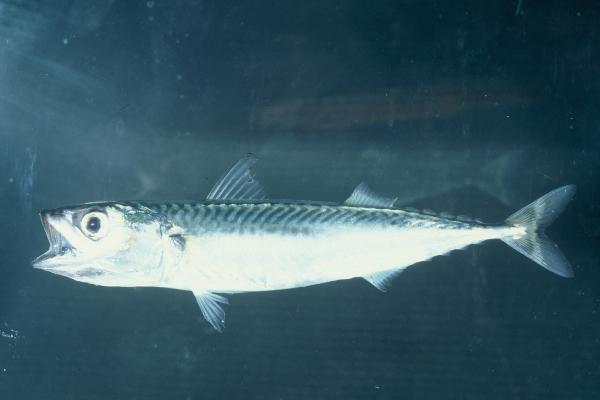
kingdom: Animalia
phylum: Chordata
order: Perciformes
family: Scombridae
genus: Scomber
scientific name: Scomber japonicus
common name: Chub mackerel
